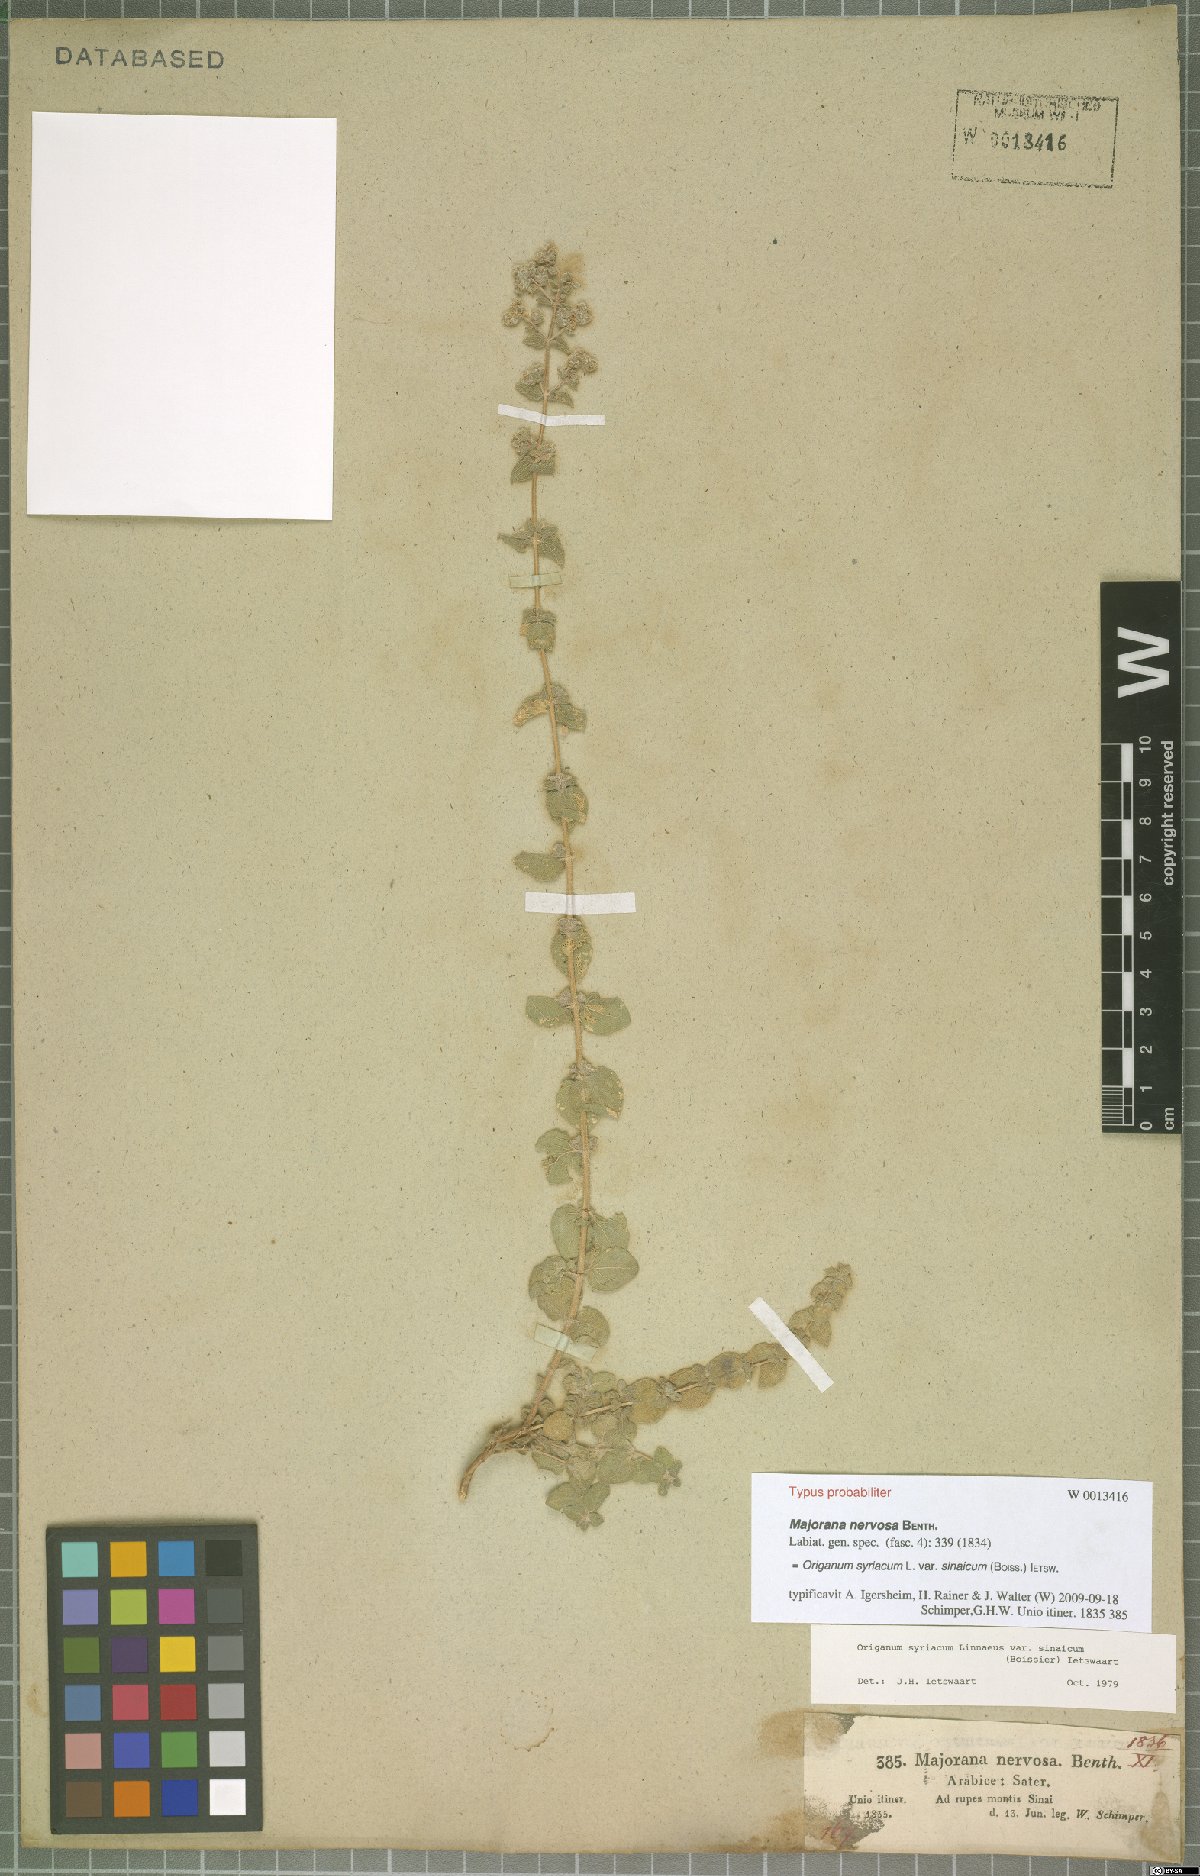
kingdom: Plantae
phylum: Tracheophyta
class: Magnoliopsida
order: Lamiales
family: Lamiaceae
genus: Origanum
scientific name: Origanum syriacum
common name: Biblical-hyssop
